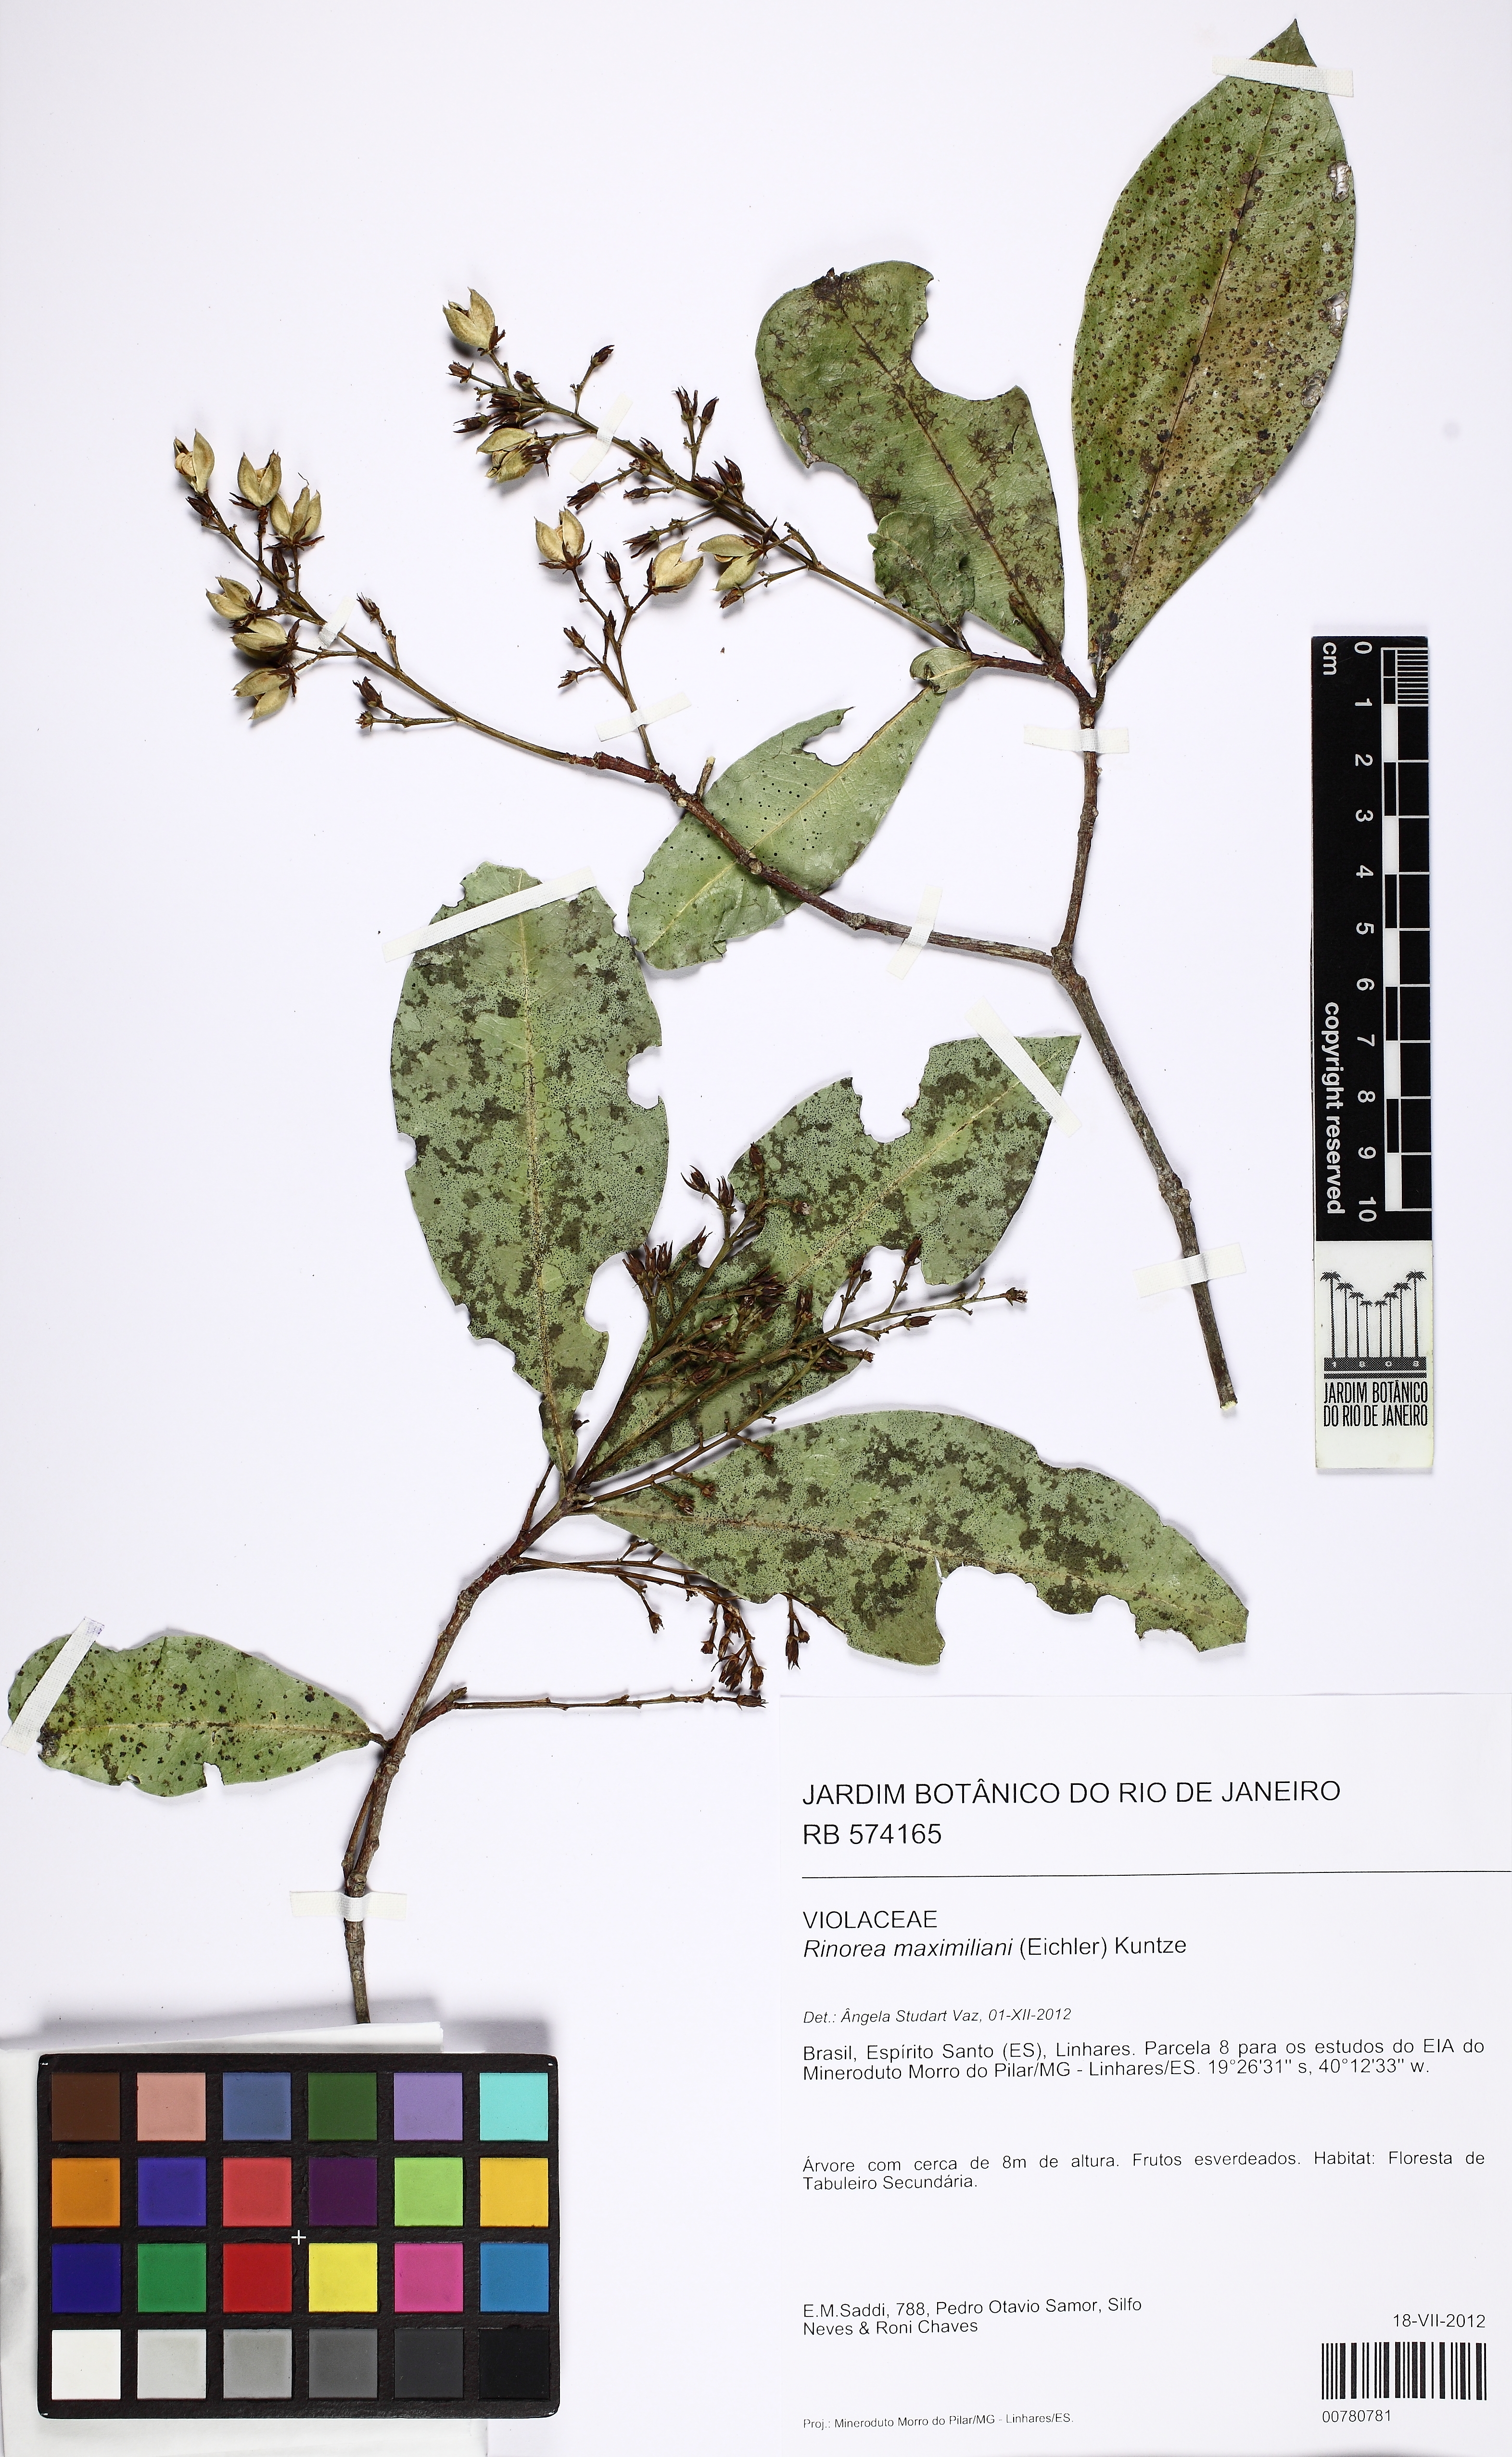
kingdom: Plantae
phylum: Tracheophyta
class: Magnoliopsida
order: Malpighiales
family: Violaceae
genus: Rinorea
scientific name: Rinorea maximiliani
